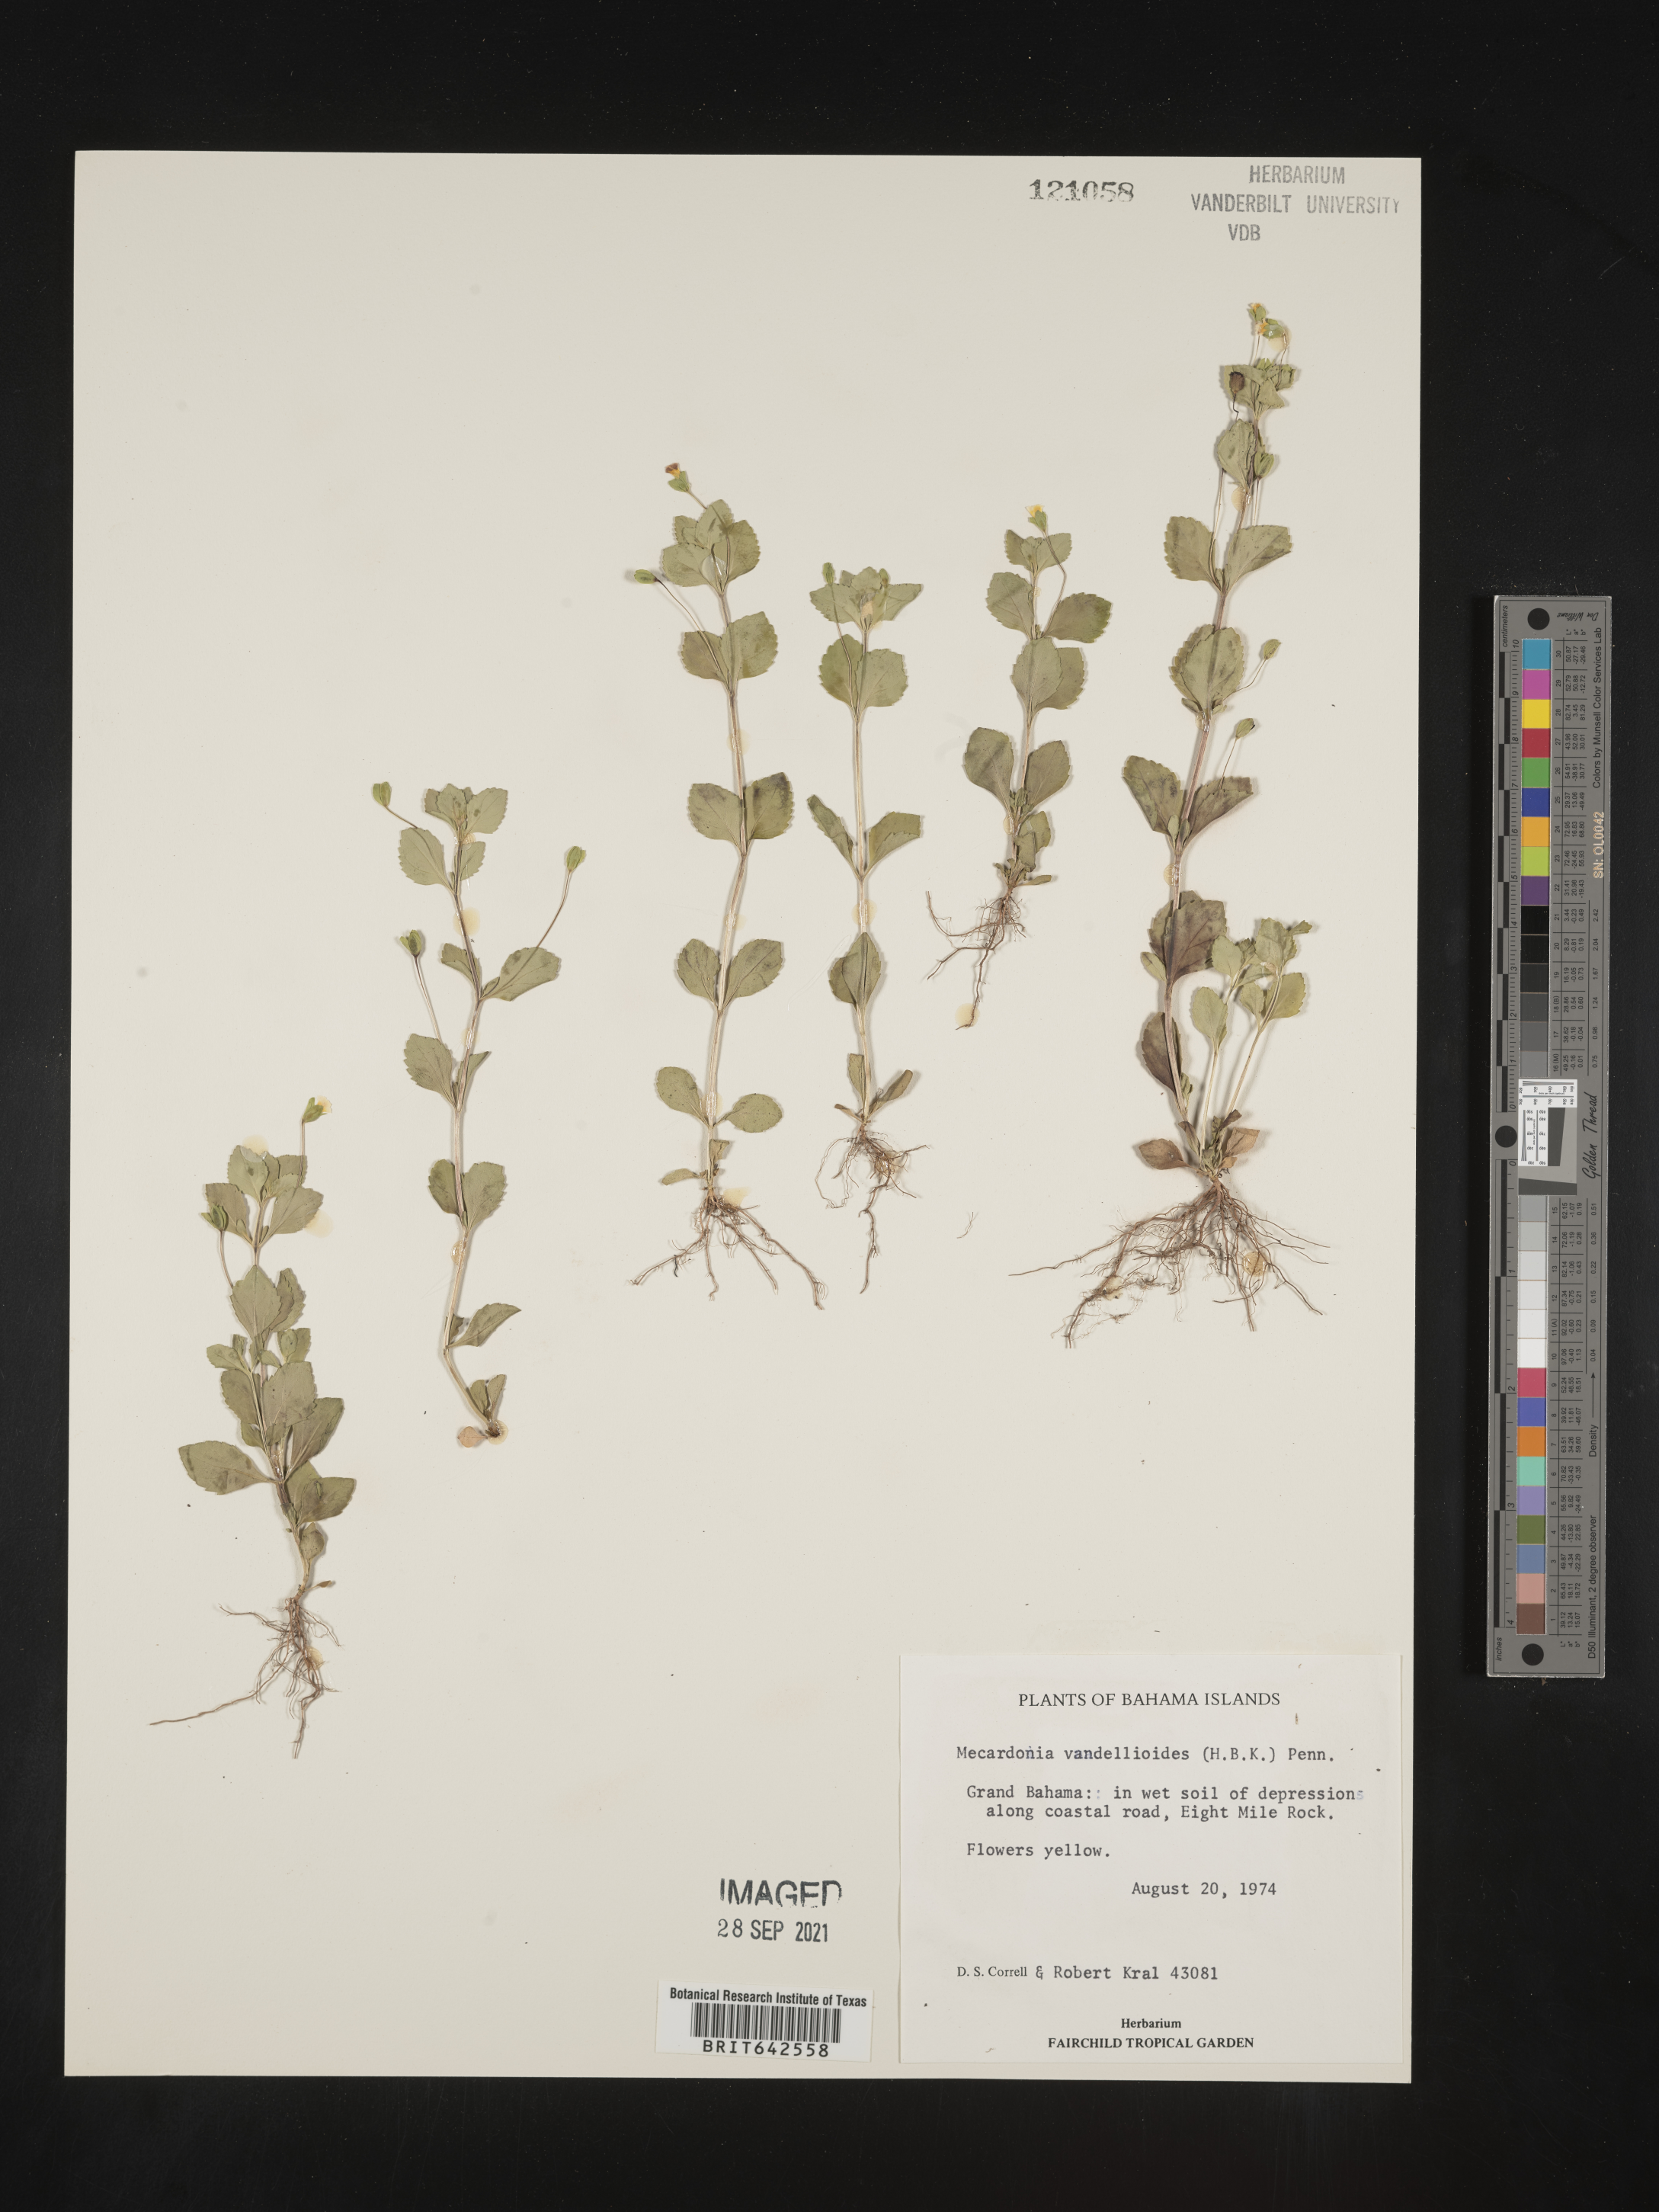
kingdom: Plantae
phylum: Tracheophyta
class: Magnoliopsida
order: Lamiales
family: Plantaginaceae
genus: Mecardonia
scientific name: Mecardonia
